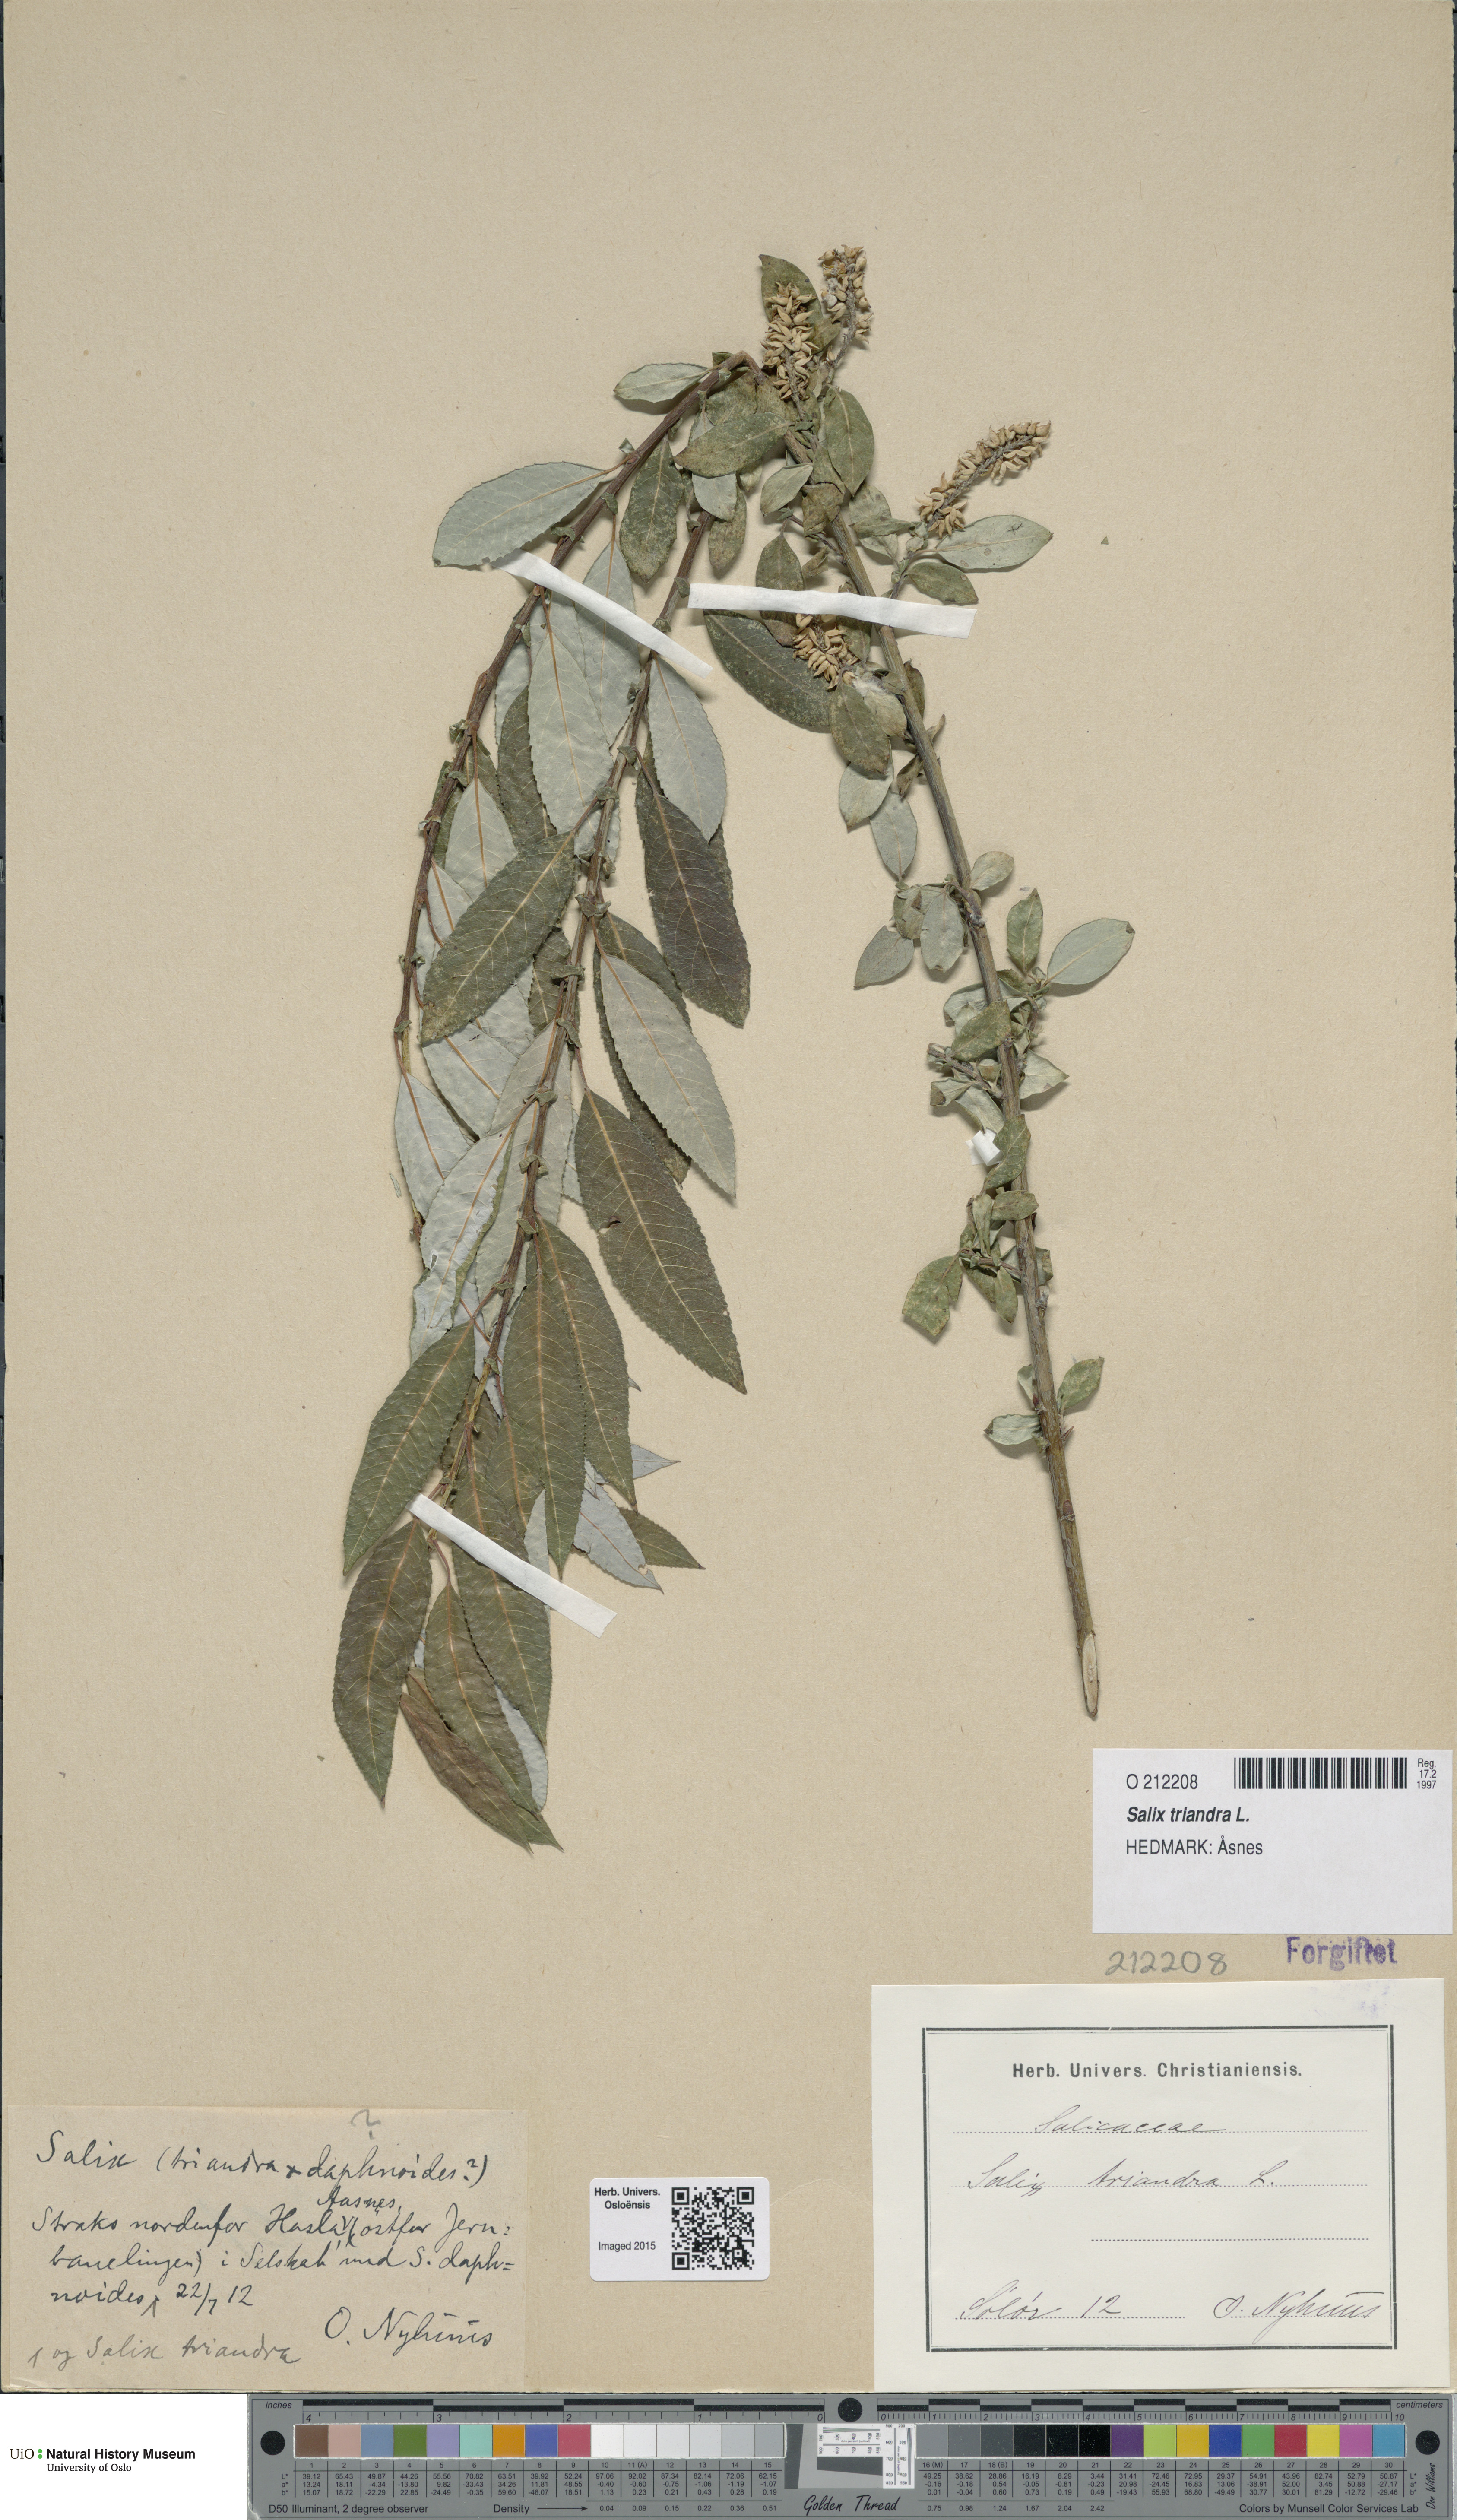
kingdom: Plantae
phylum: Tracheophyta
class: Magnoliopsida
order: Malpighiales
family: Salicaceae
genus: Salix
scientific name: Salix triandra
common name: Almond willow
